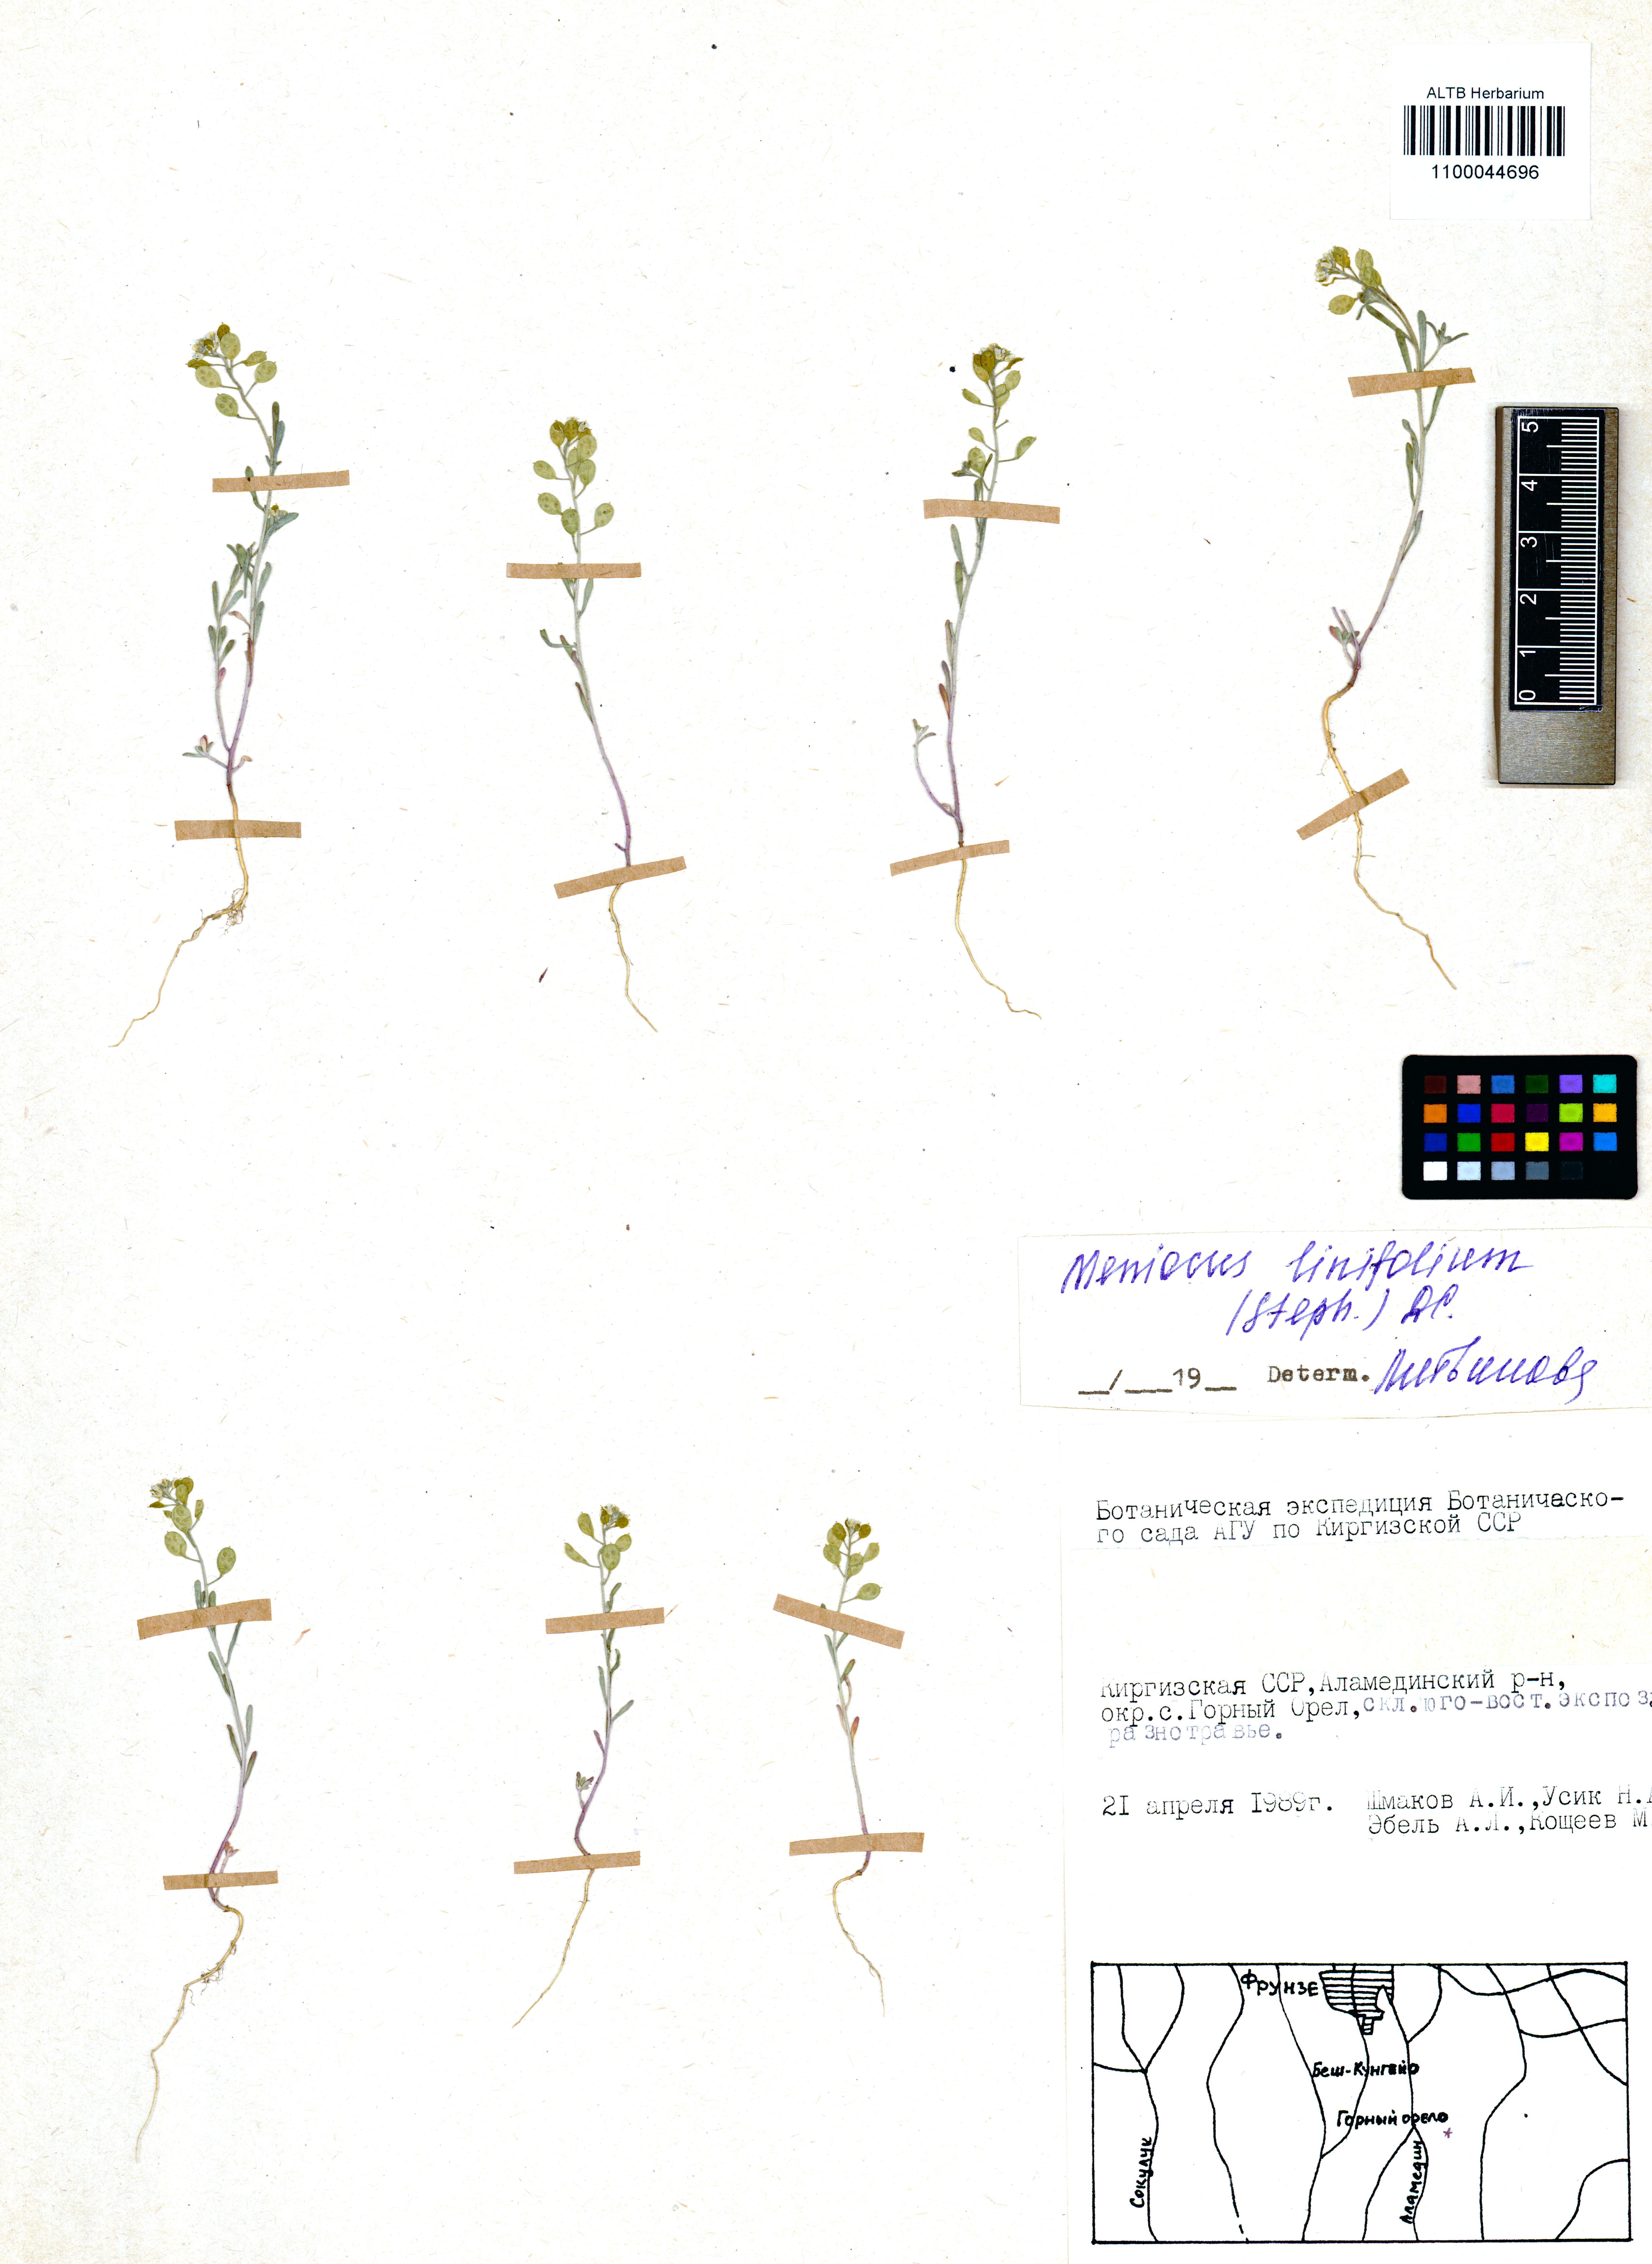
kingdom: Plantae
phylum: Tracheophyta
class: Magnoliopsida
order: Brassicales
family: Brassicaceae
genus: Meniocus
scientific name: Meniocus linifolius
